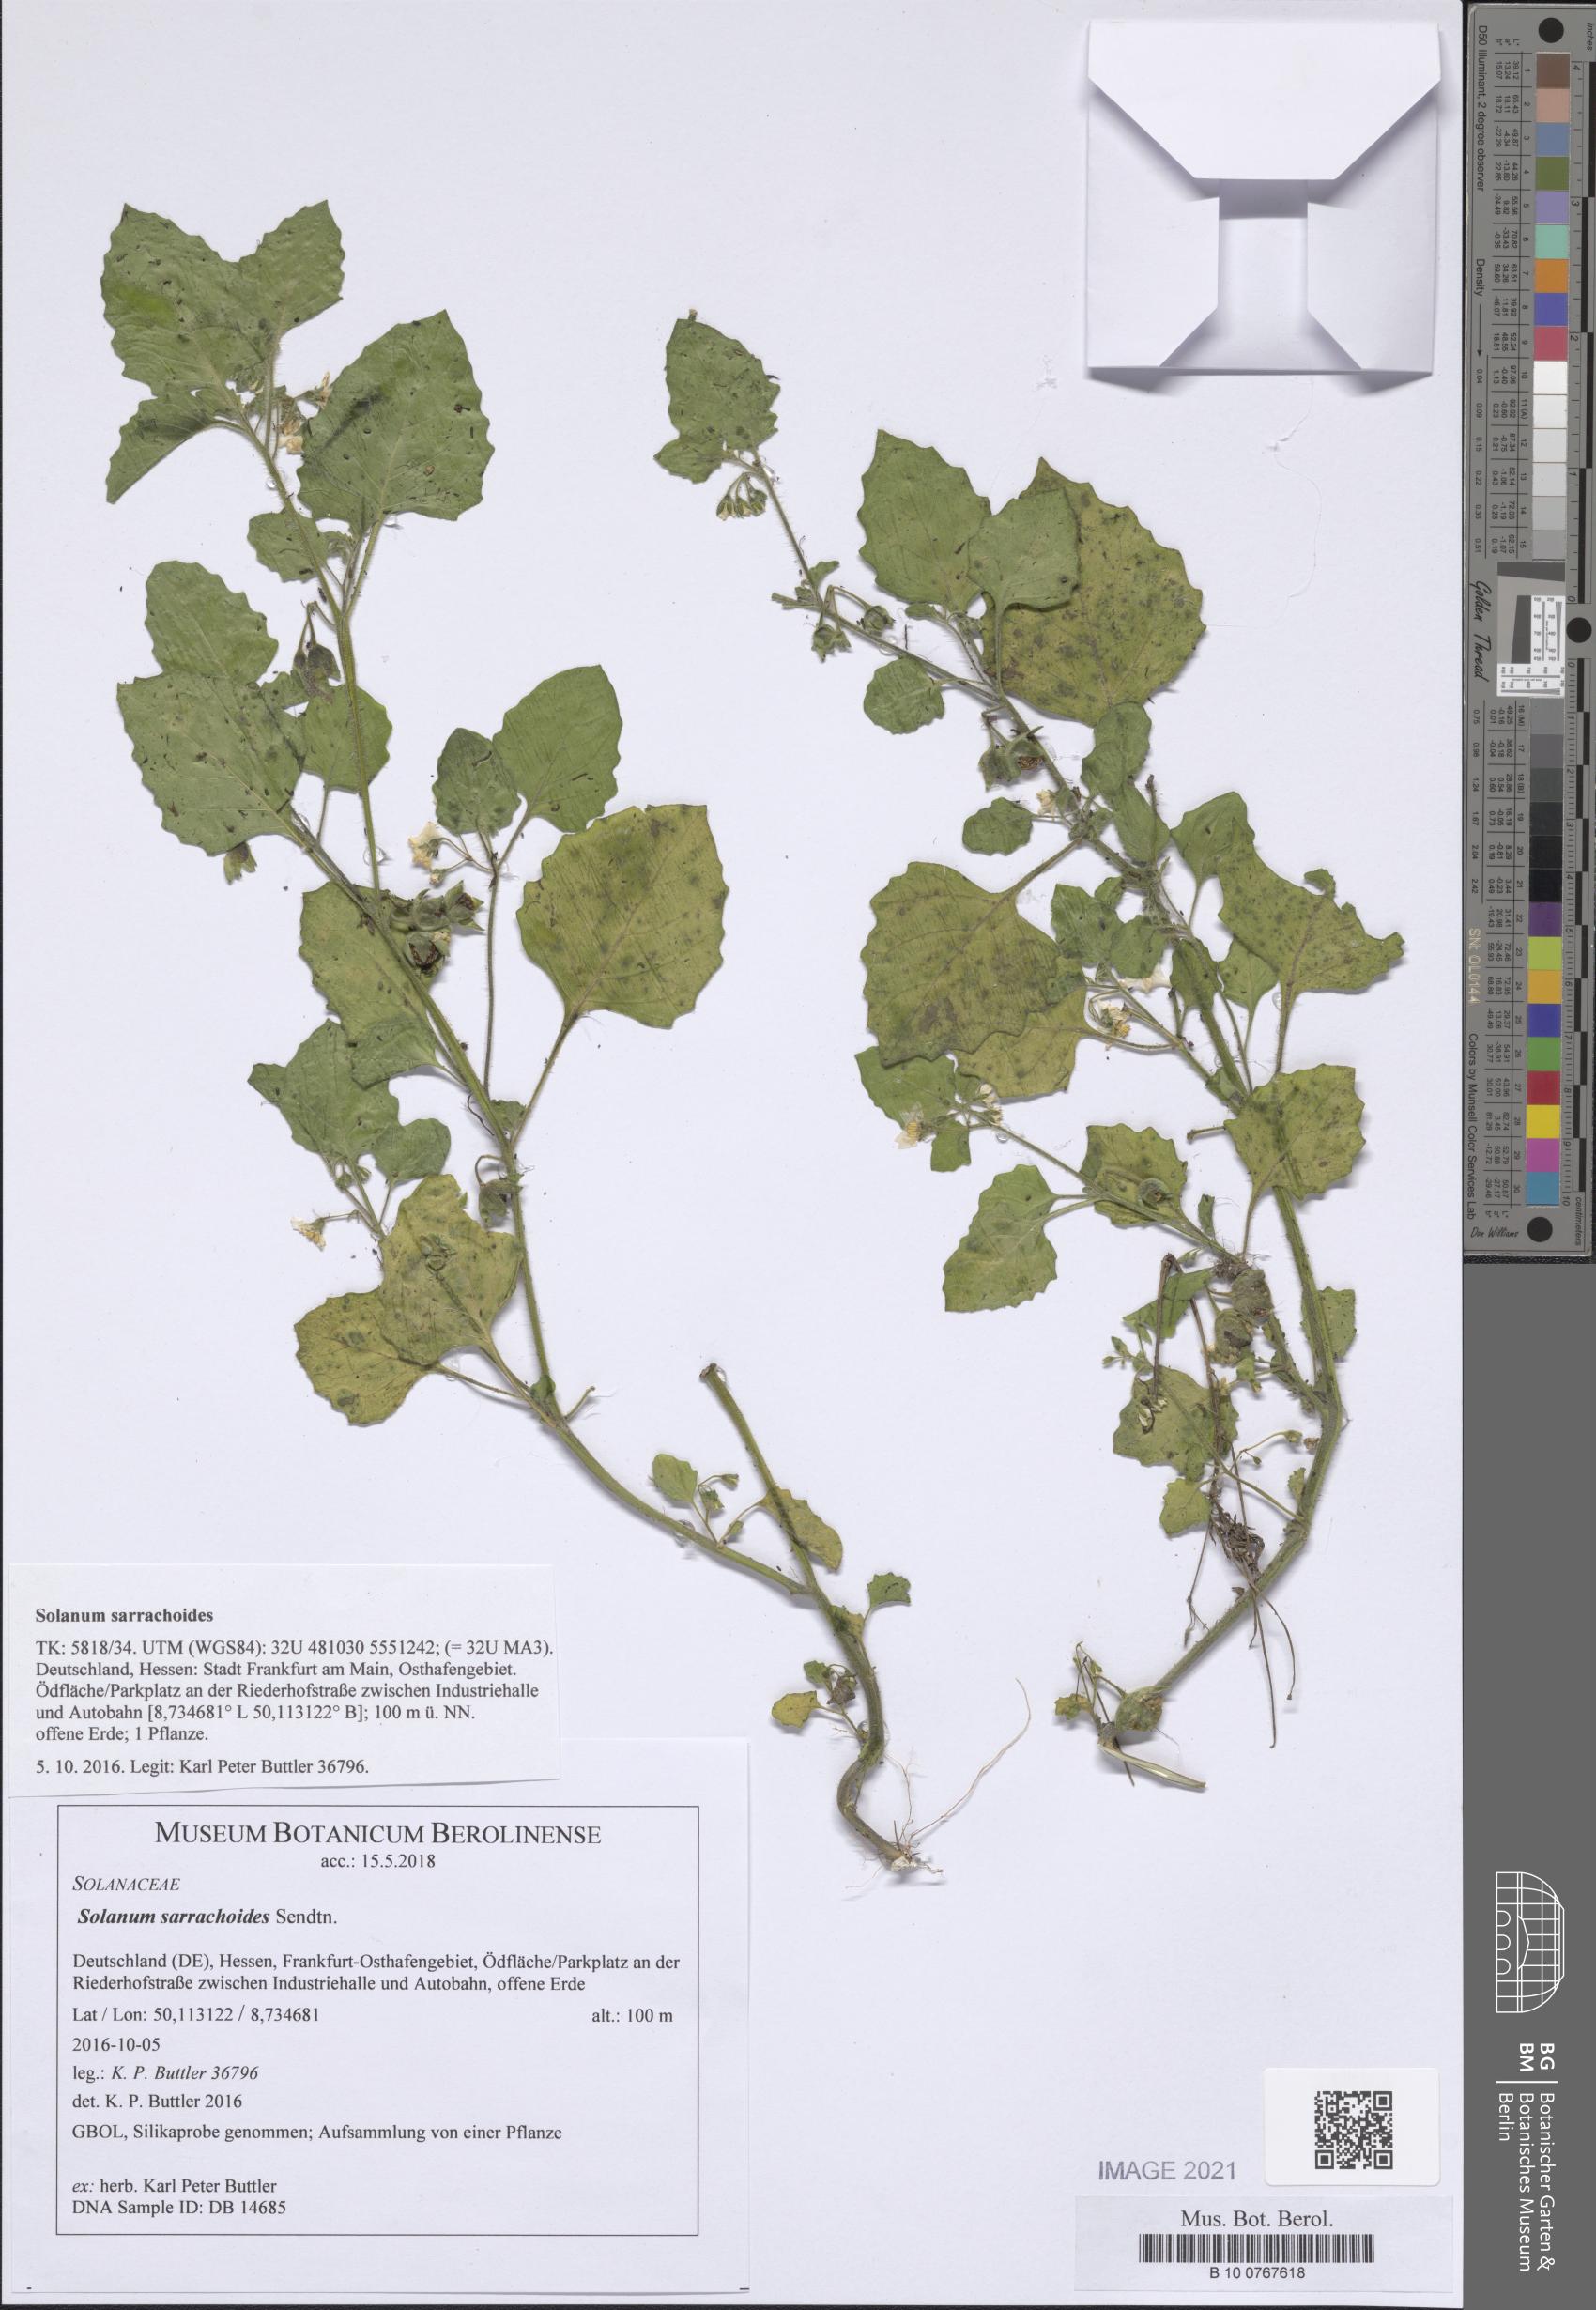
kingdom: Plantae
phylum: Tracheophyta
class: Magnoliopsida
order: Solanales
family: Solanaceae
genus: Solanum
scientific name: Solanum sarrachoides
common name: Leafy-fruited nightshade
